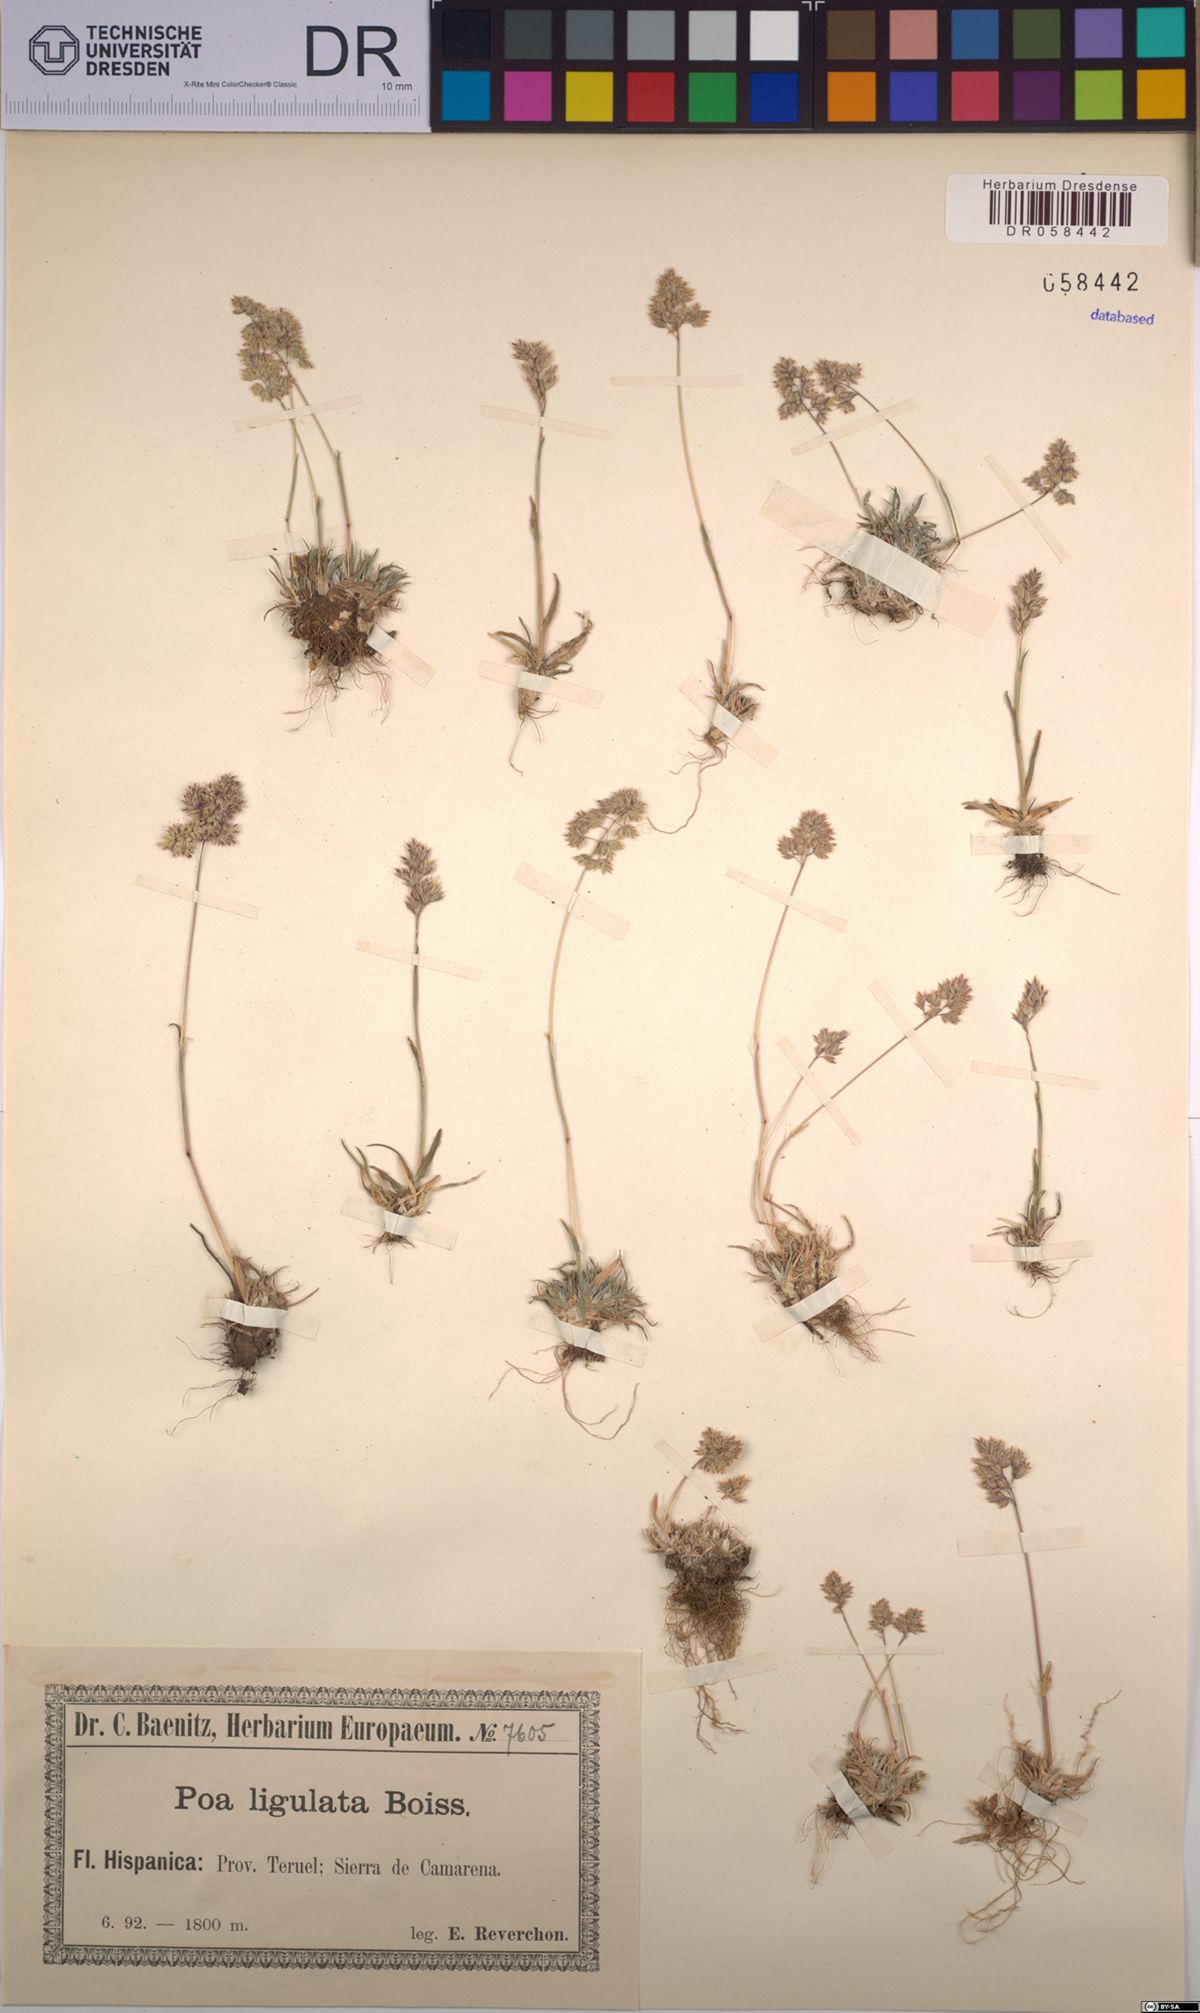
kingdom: Plantae
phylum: Tracheophyta
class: Liliopsida
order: Poales
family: Poaceae
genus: Poa
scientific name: Poa ligulata
